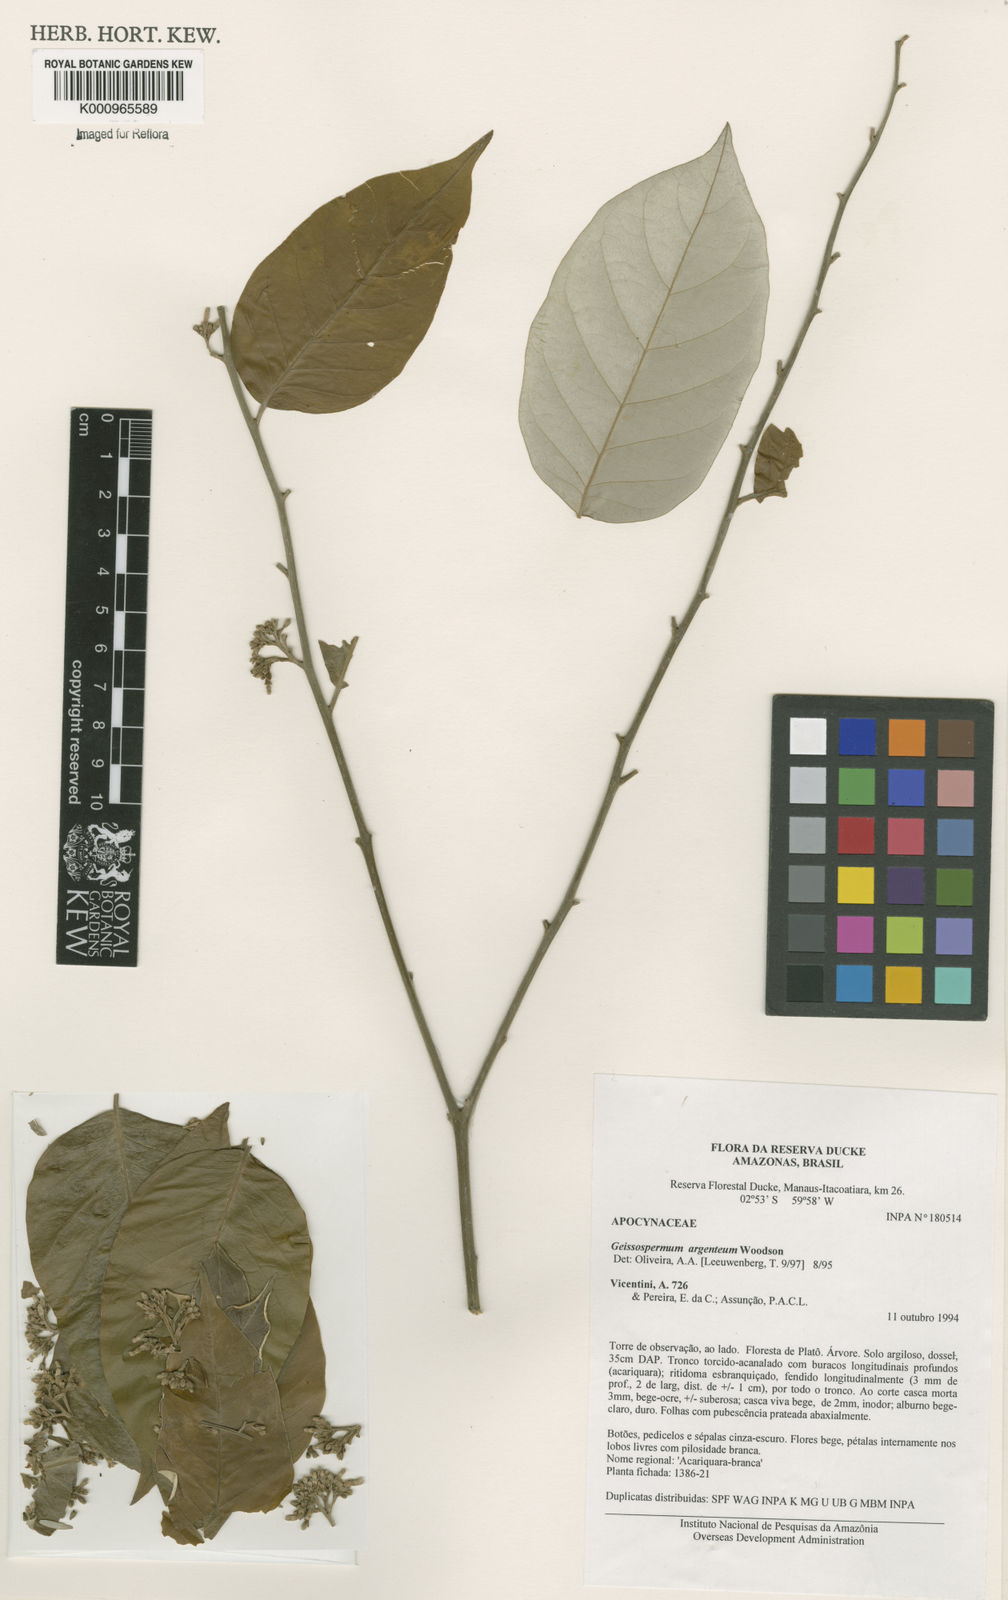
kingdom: Plantae
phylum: Tracheophyta
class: Magnoliopsida
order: Gentianales
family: Apocynaceae
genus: Geissospermum
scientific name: Geissospermum argenteum
